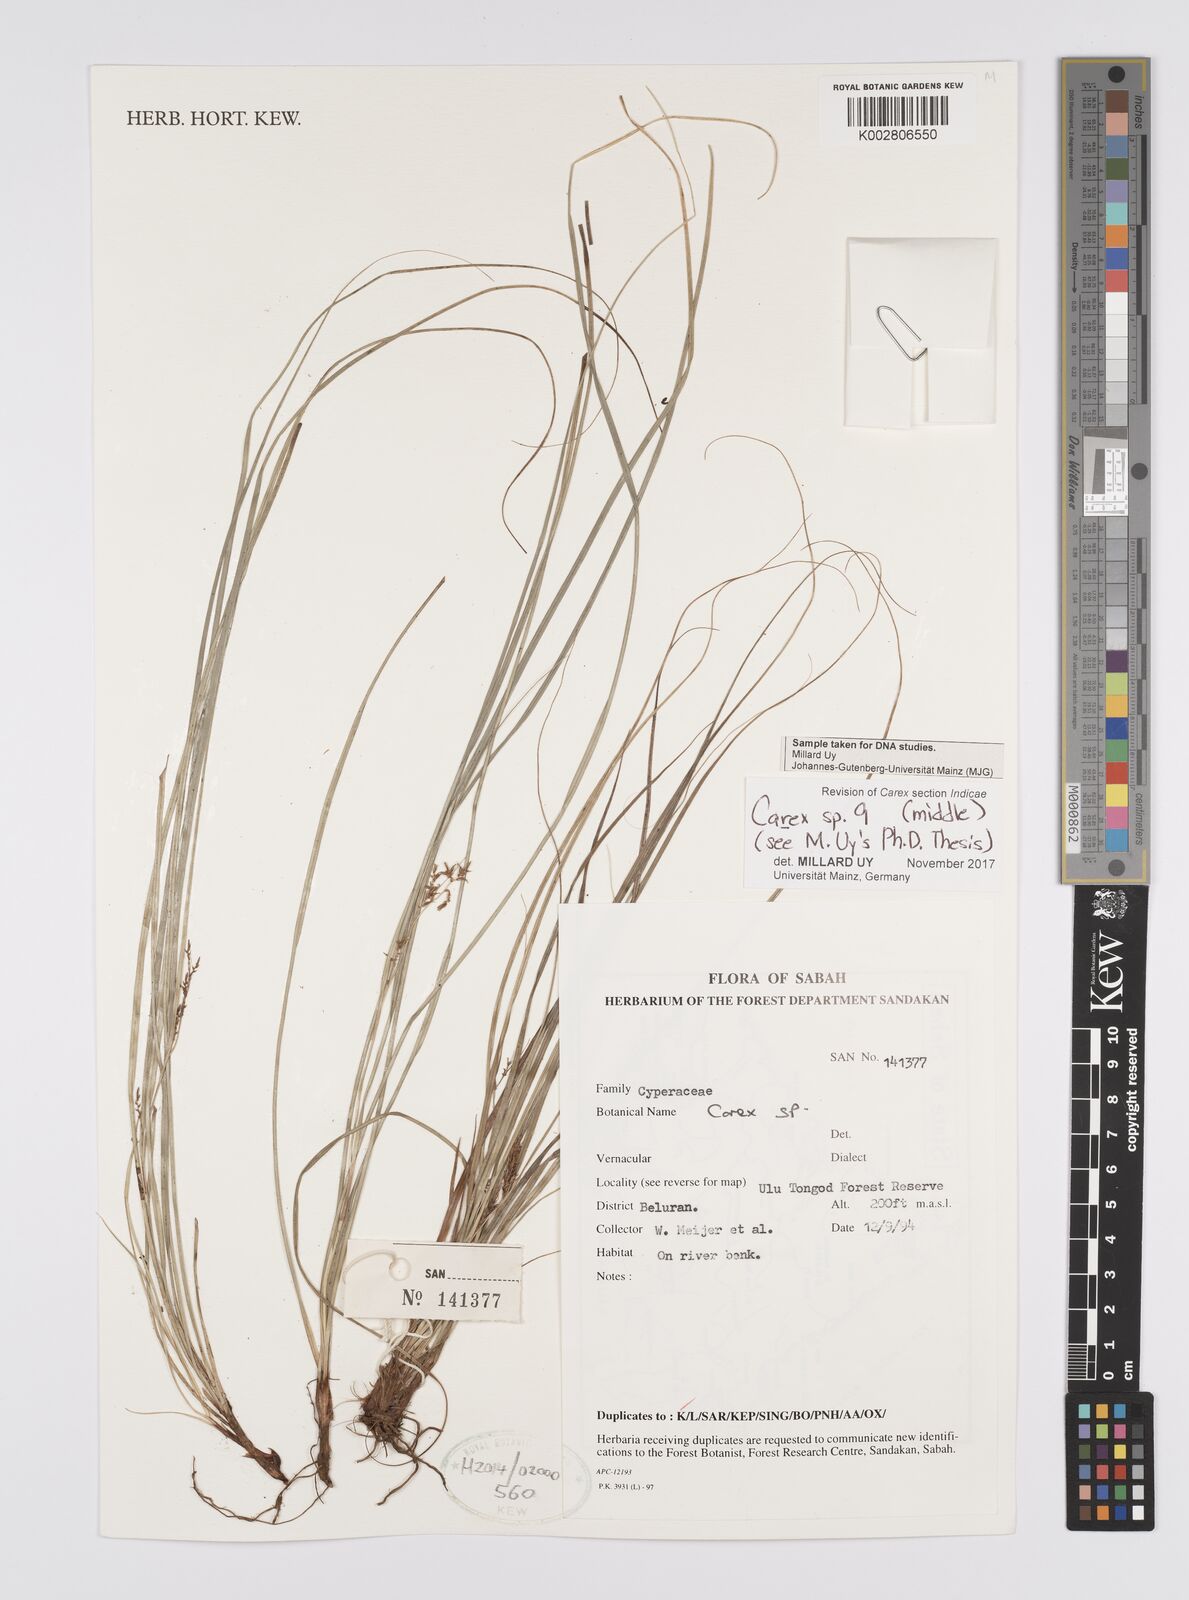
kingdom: Plantae
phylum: Tracheophyta
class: Liliopsida
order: Poales
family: Cyperaceae
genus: Carex
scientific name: Carex
